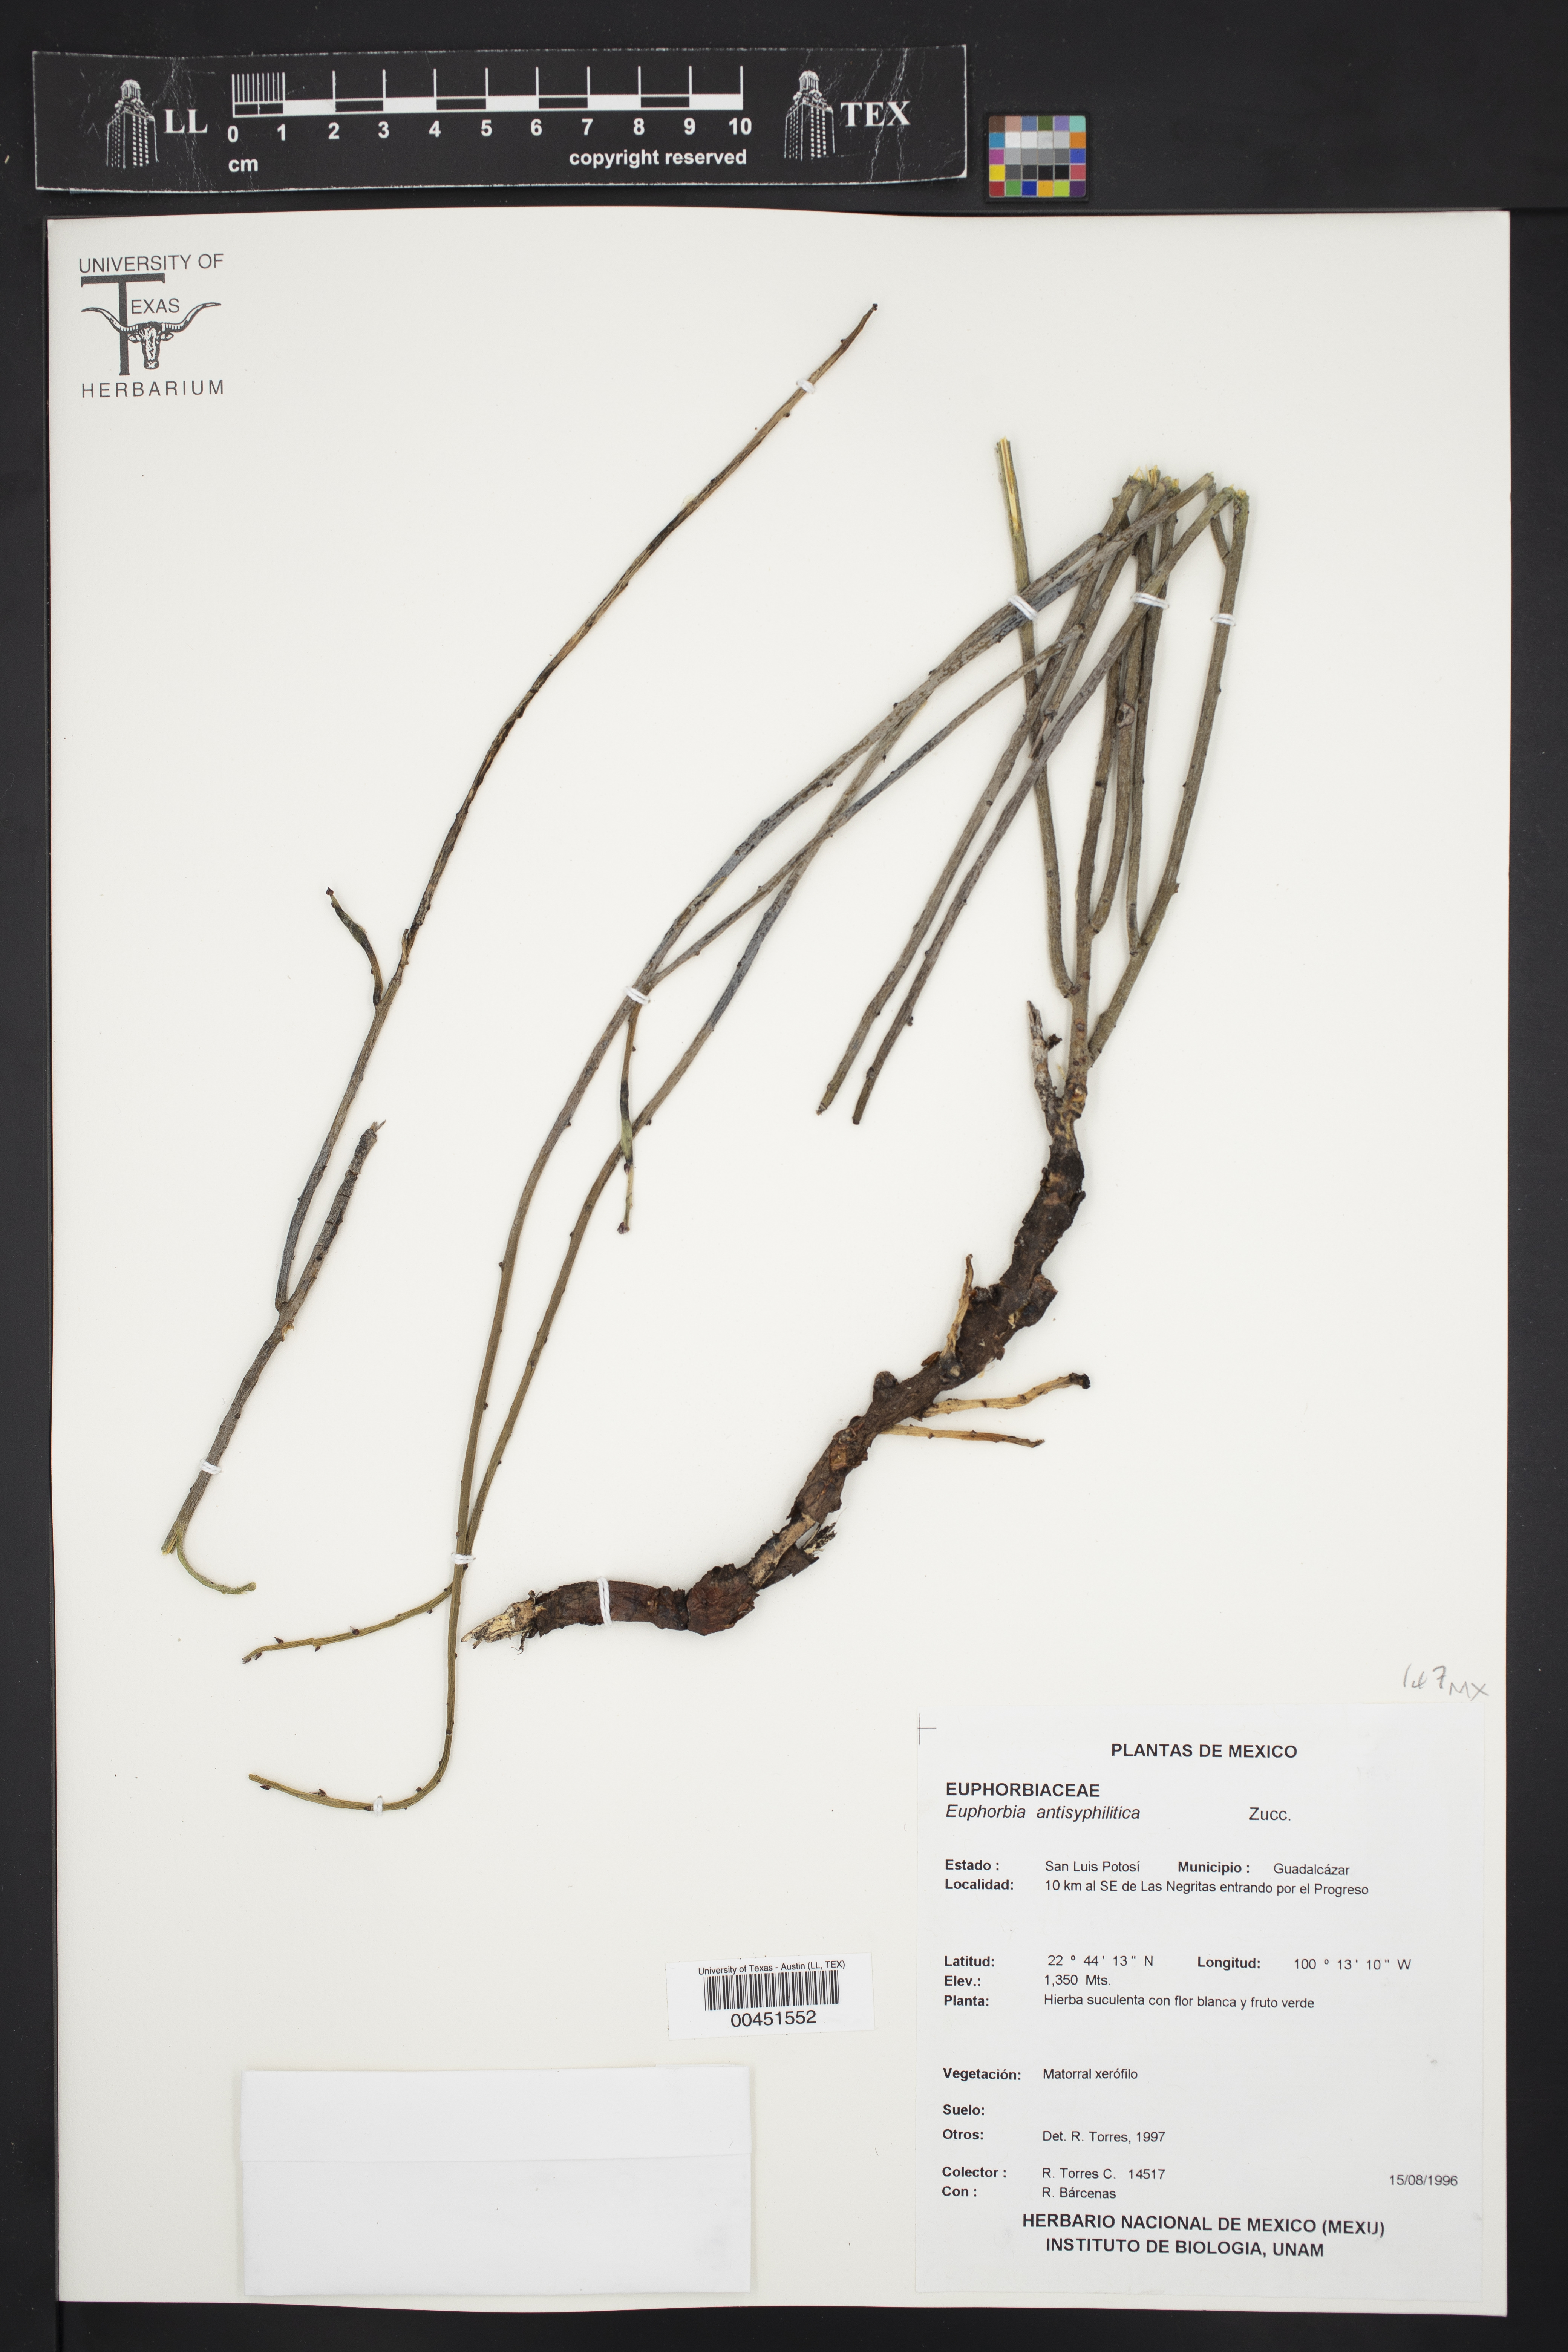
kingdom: Plantae
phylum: Tracheophyta
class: Magnoliopsida
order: Malpighiales
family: Euphorbiaceae
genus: Euphorbia
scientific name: Euphorbia antisyphilitica
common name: Candelilla
